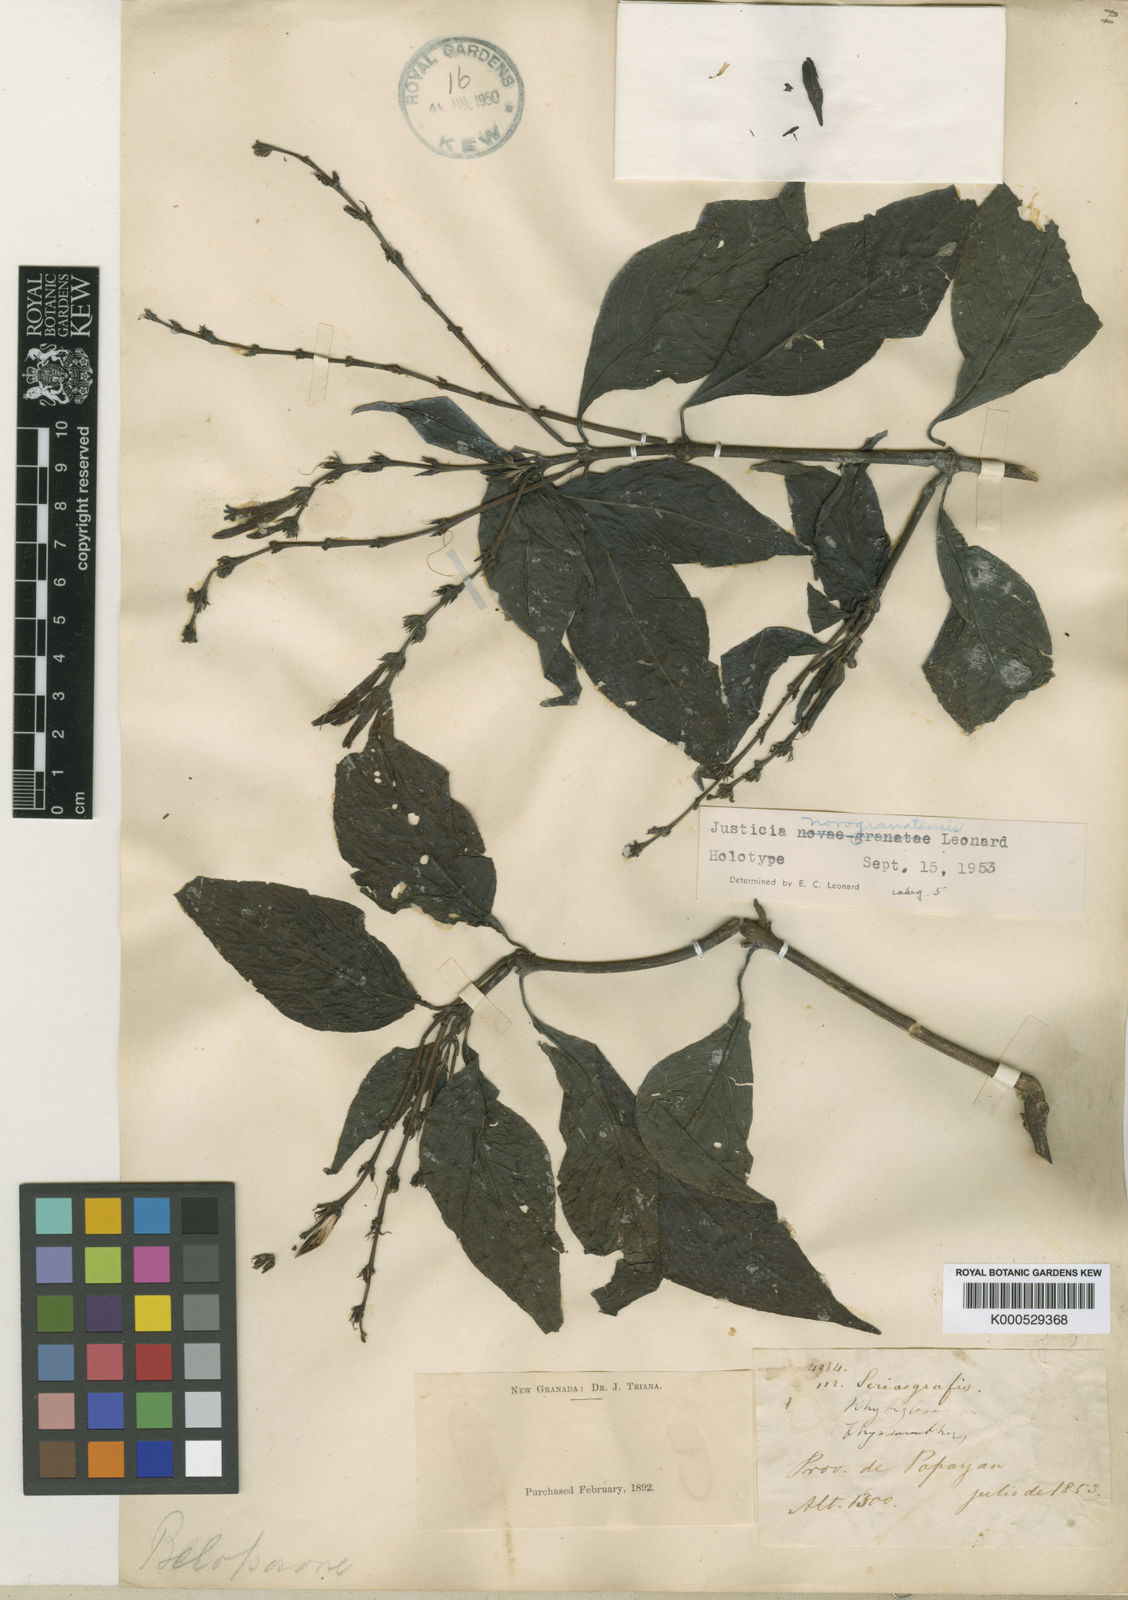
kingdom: Plantae
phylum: Tracheophyta
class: Magnoliopsida
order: Lamiales
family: Acanthaceae
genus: Justicia
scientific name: Justicia novogranatensis
